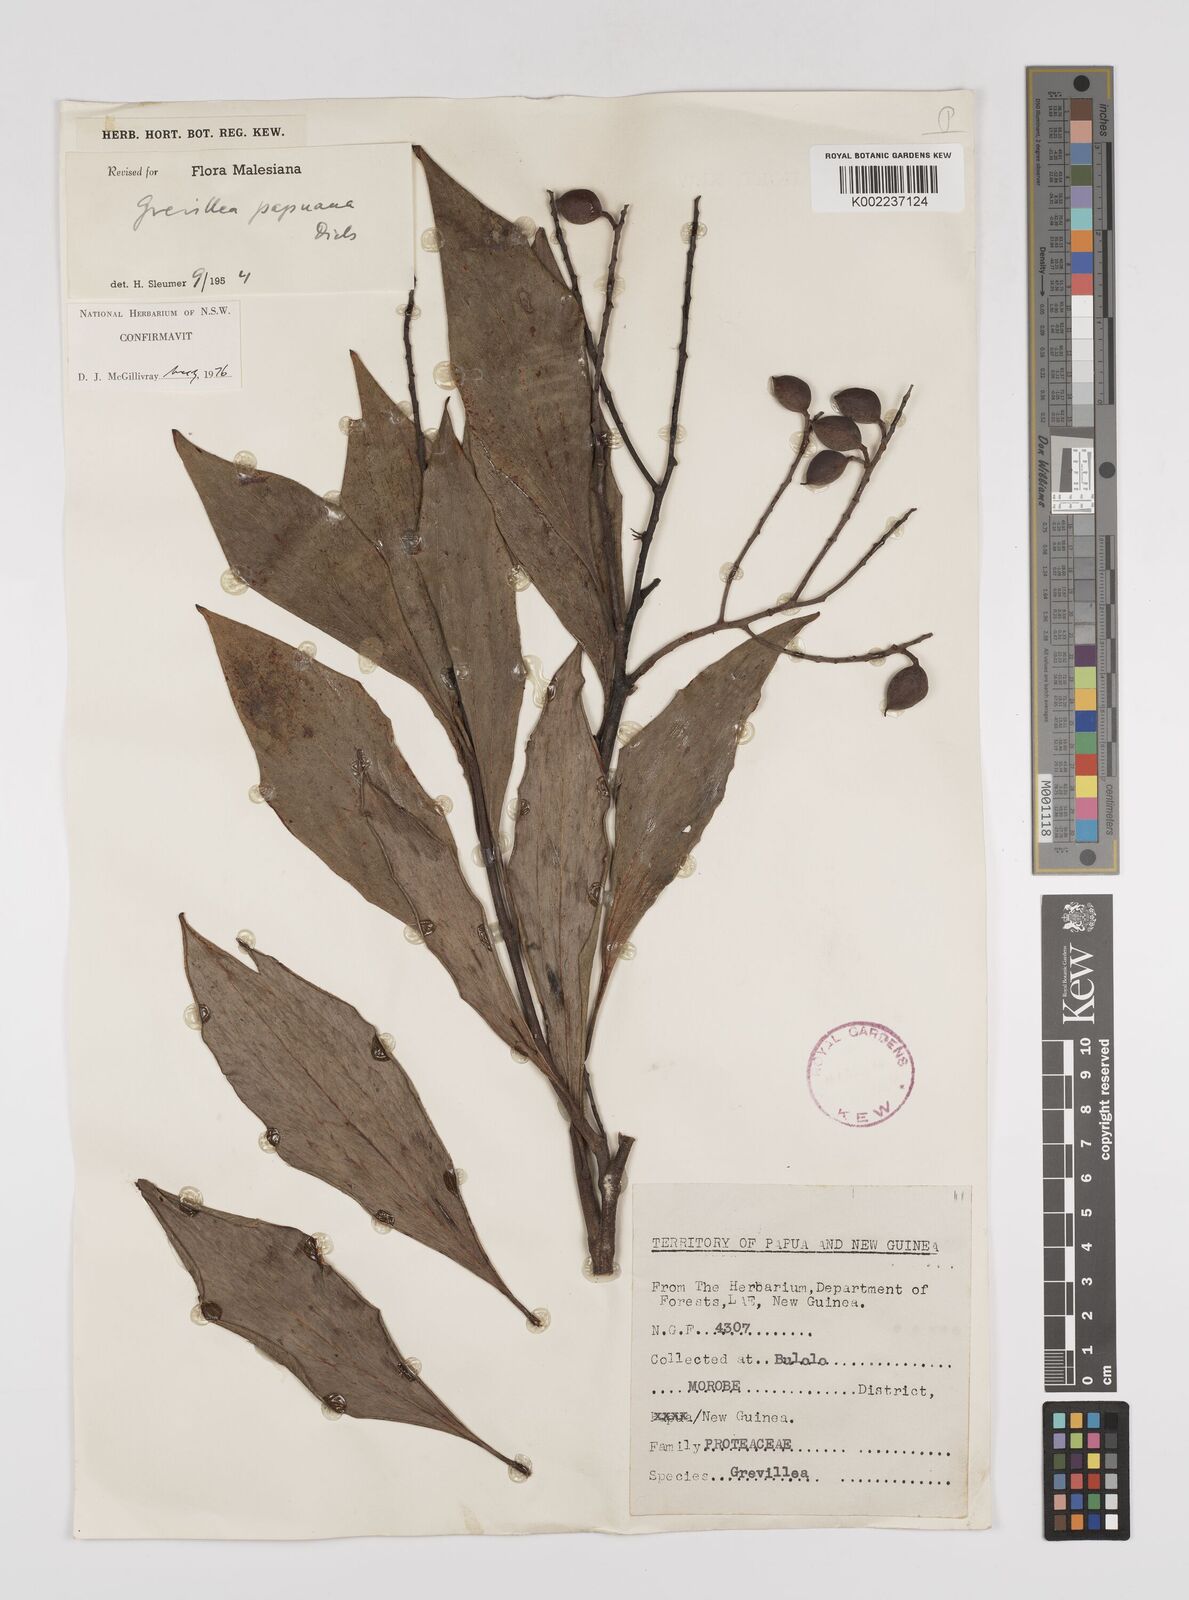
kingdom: Plantae
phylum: Tracheophyta
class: Magnoliopsida
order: Proteales
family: Proteaceae
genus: Grevillea
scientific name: Grevillea papuana
